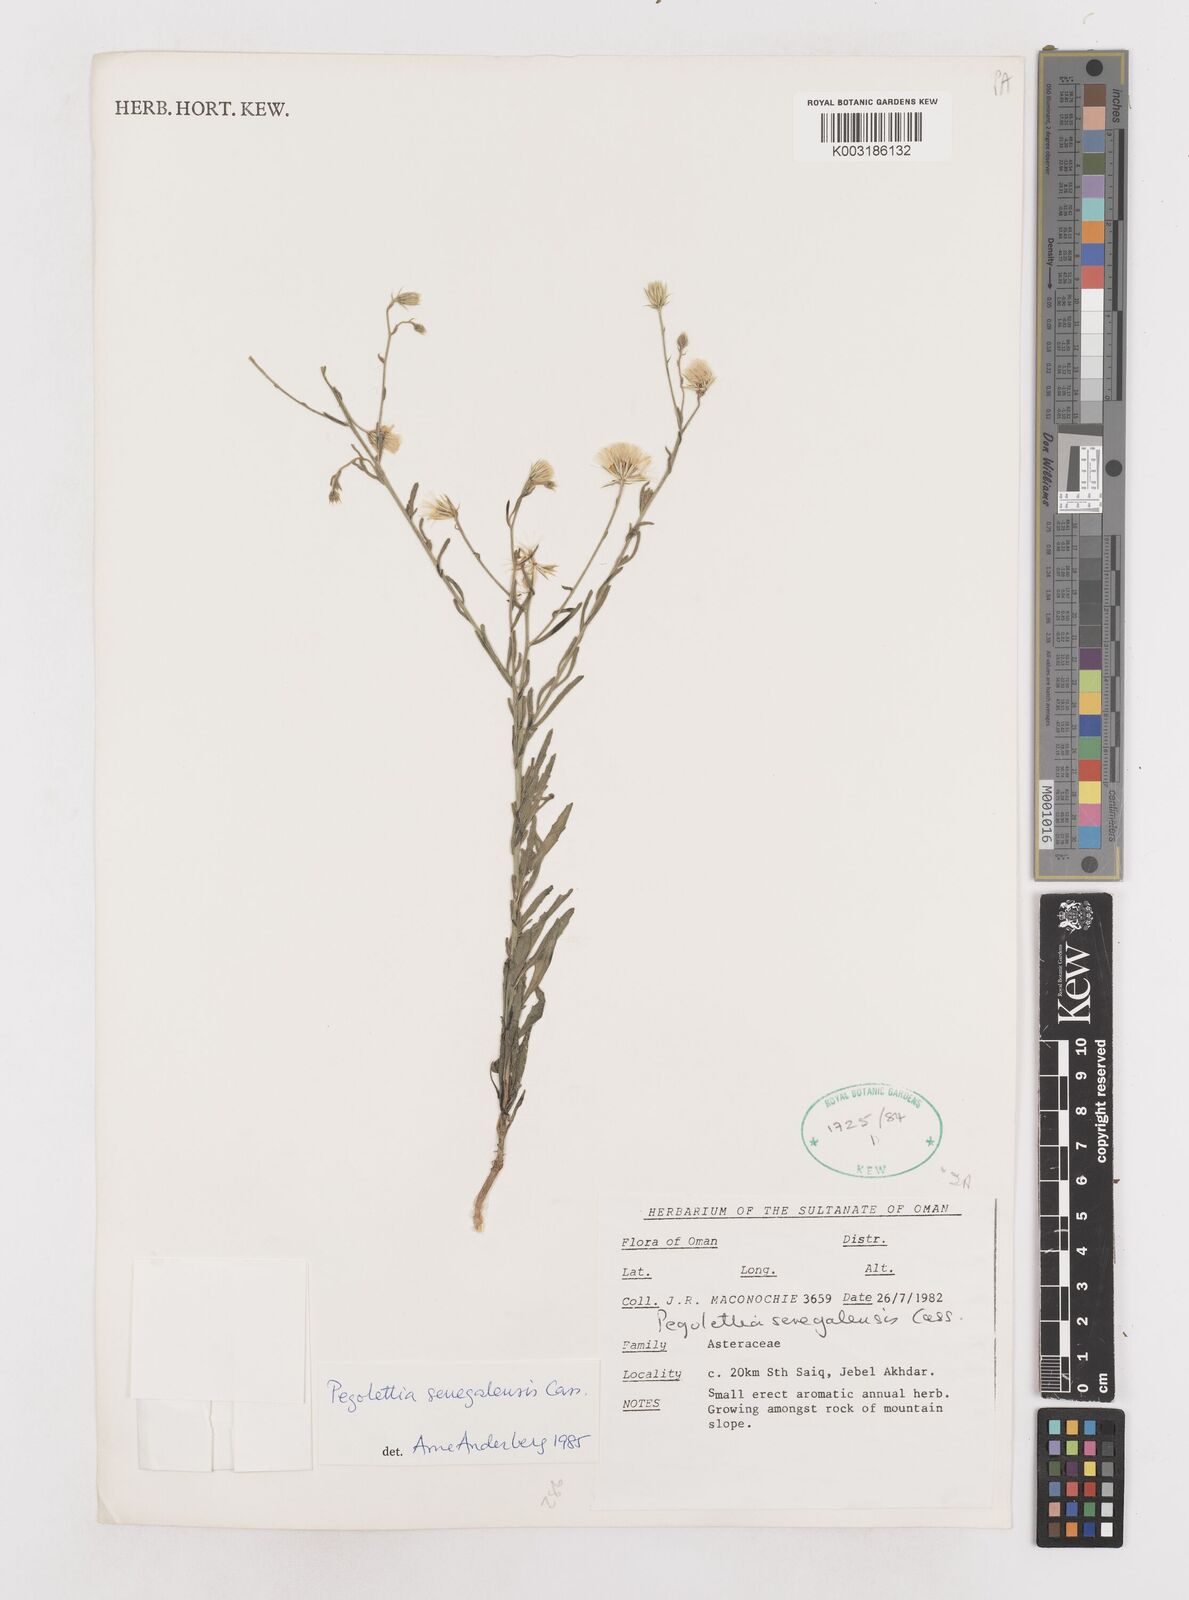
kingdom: Plantae
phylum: Tracheophyta
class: Magnoliopsida
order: Asterales
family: Asteraceae
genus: Pegolettia
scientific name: Pegolettia senegalensis
